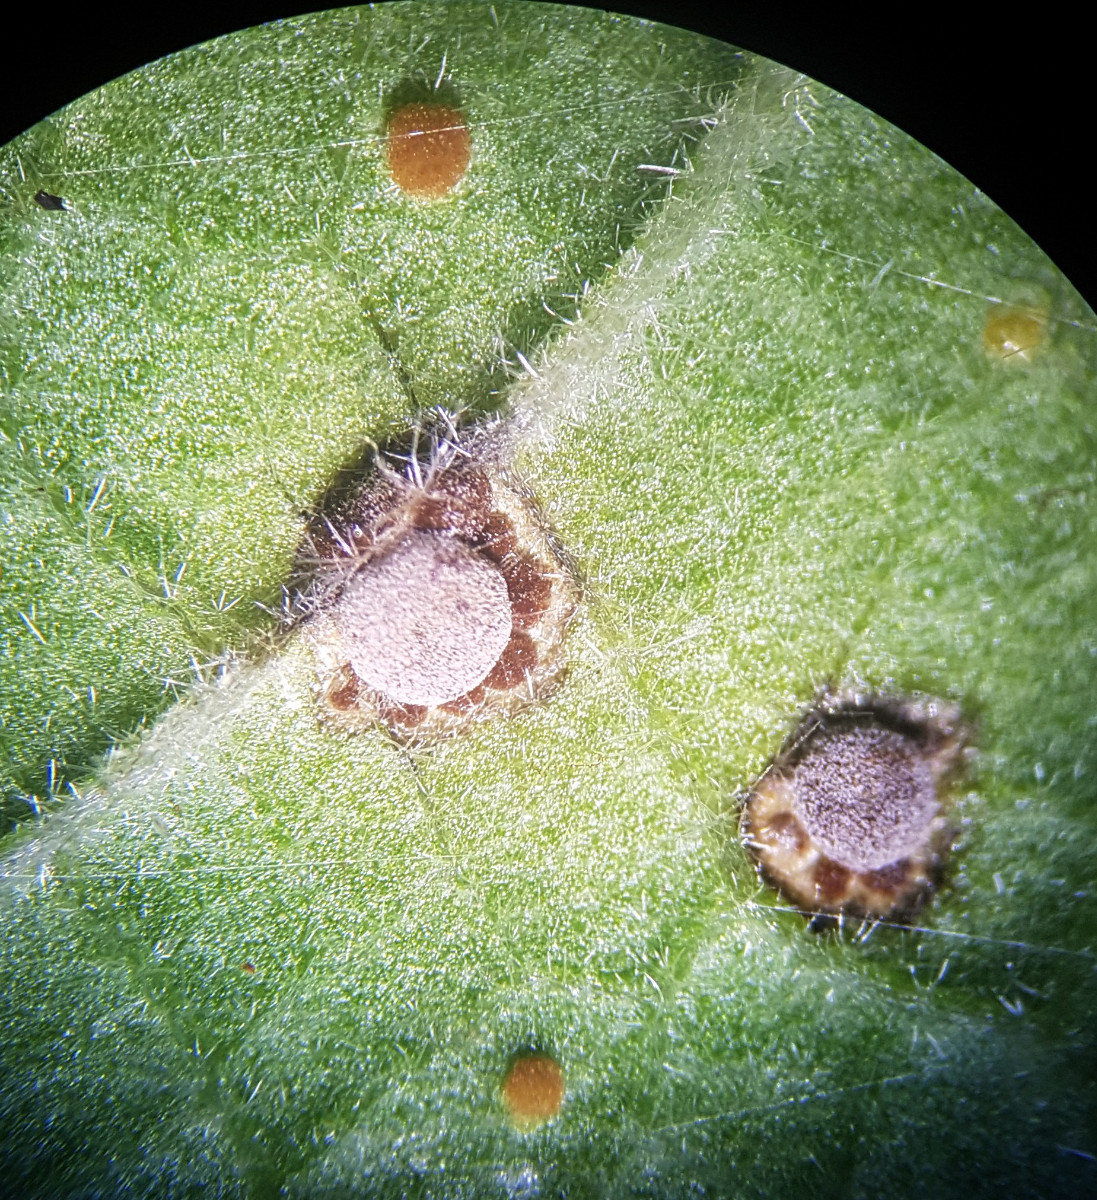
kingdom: Fungi
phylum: Basidiomycota
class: Pucciniomycetes
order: Pucciniales
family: Pucciniaceae
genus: Puccinia
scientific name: Puccinia malvacearum
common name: stokrose-tvecellerust
